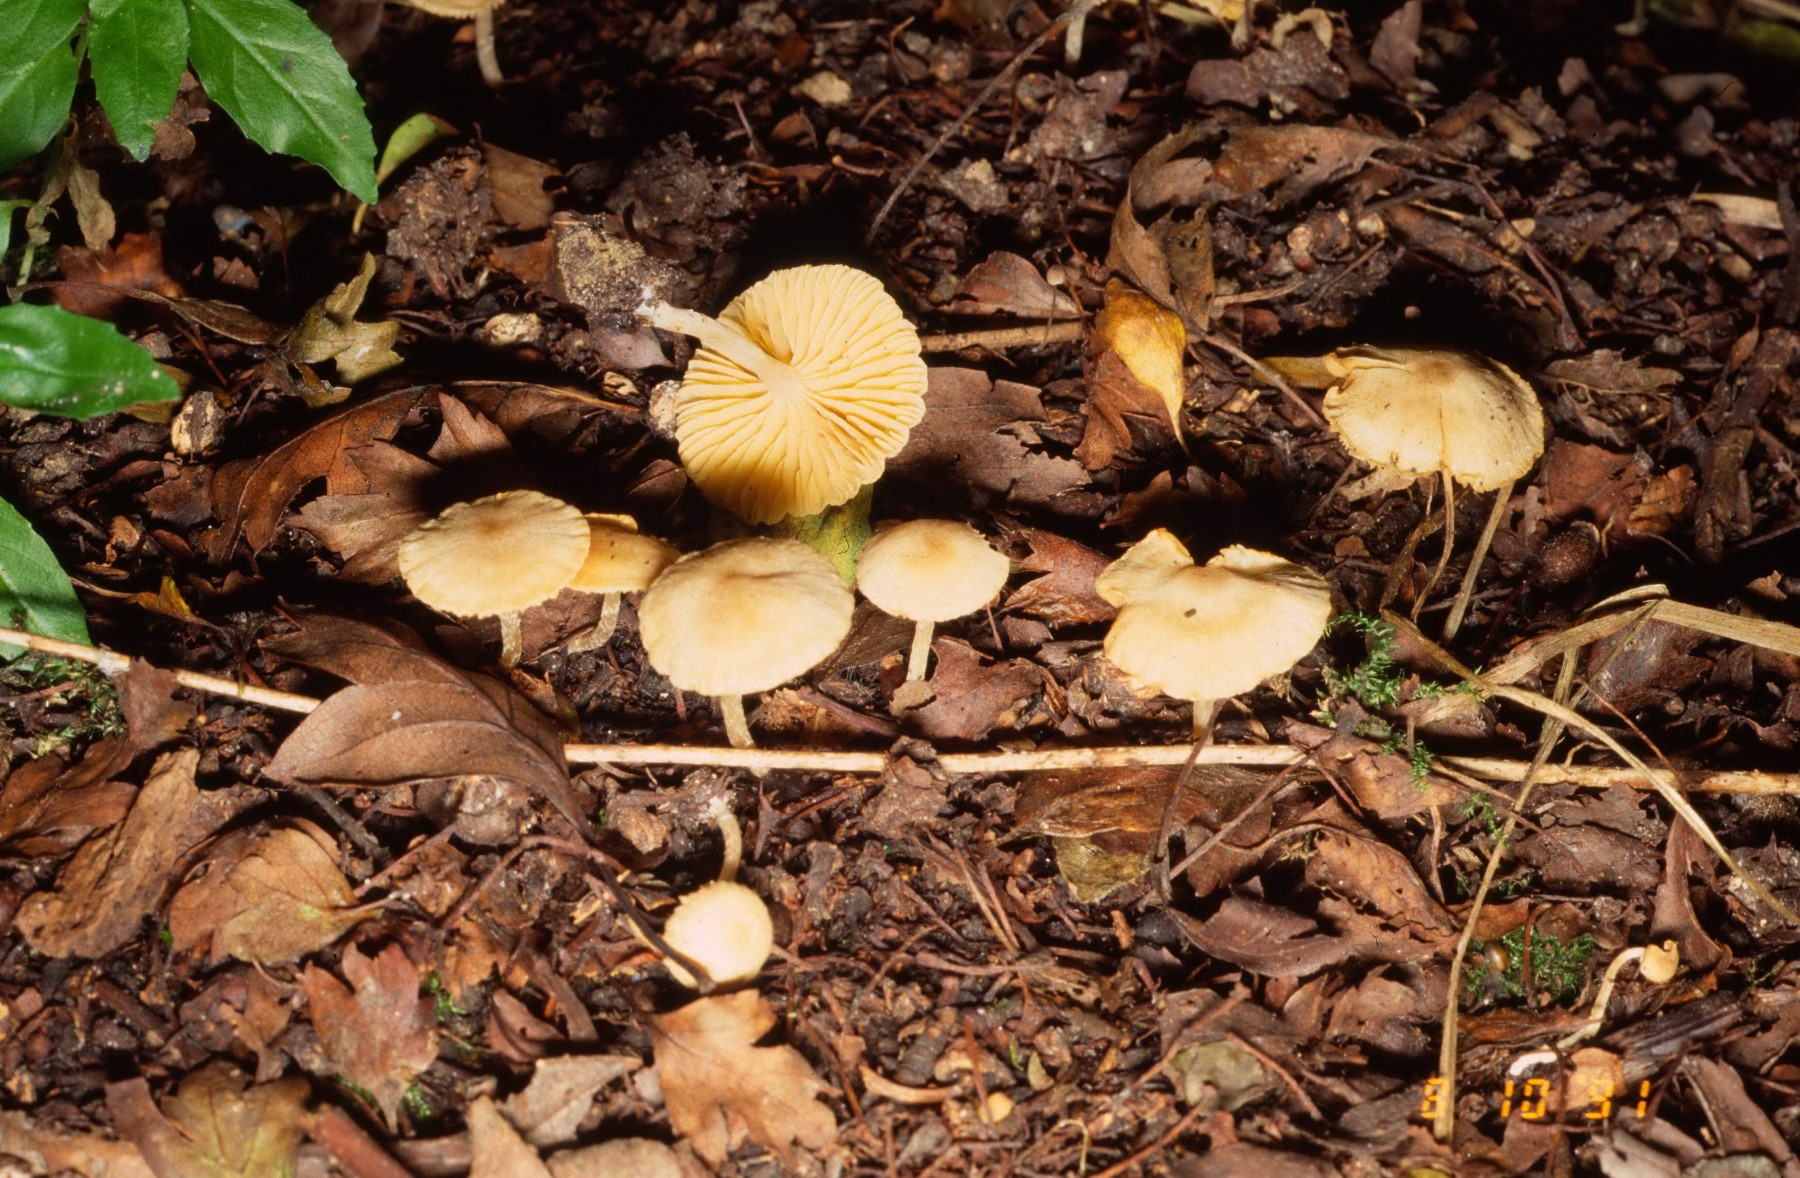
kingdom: Fungi
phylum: Basidiomycota
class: Agaricomycetes
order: Agaricales
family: Tubariaceae
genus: Tubaria
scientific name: Tubaria dispersa
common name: tjørne-fnughat
